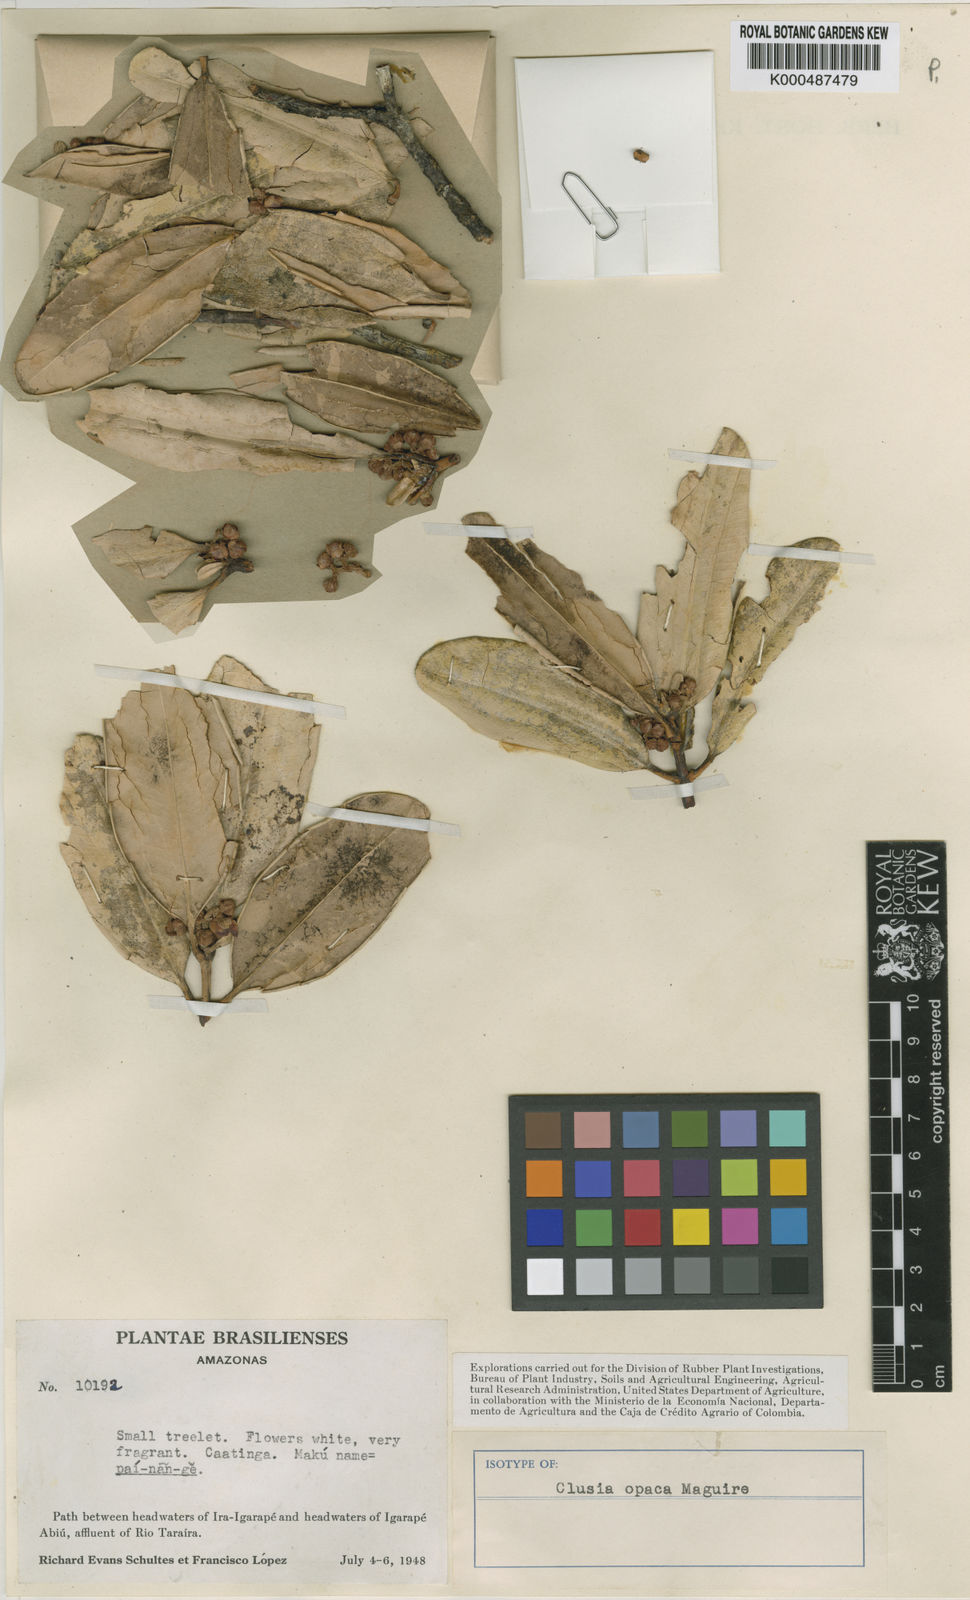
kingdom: Plantae
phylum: Tracheophyta
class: Magnoliopsida
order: Malpighiales
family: Clusiaceae
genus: Clusia
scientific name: Clusia opaca
